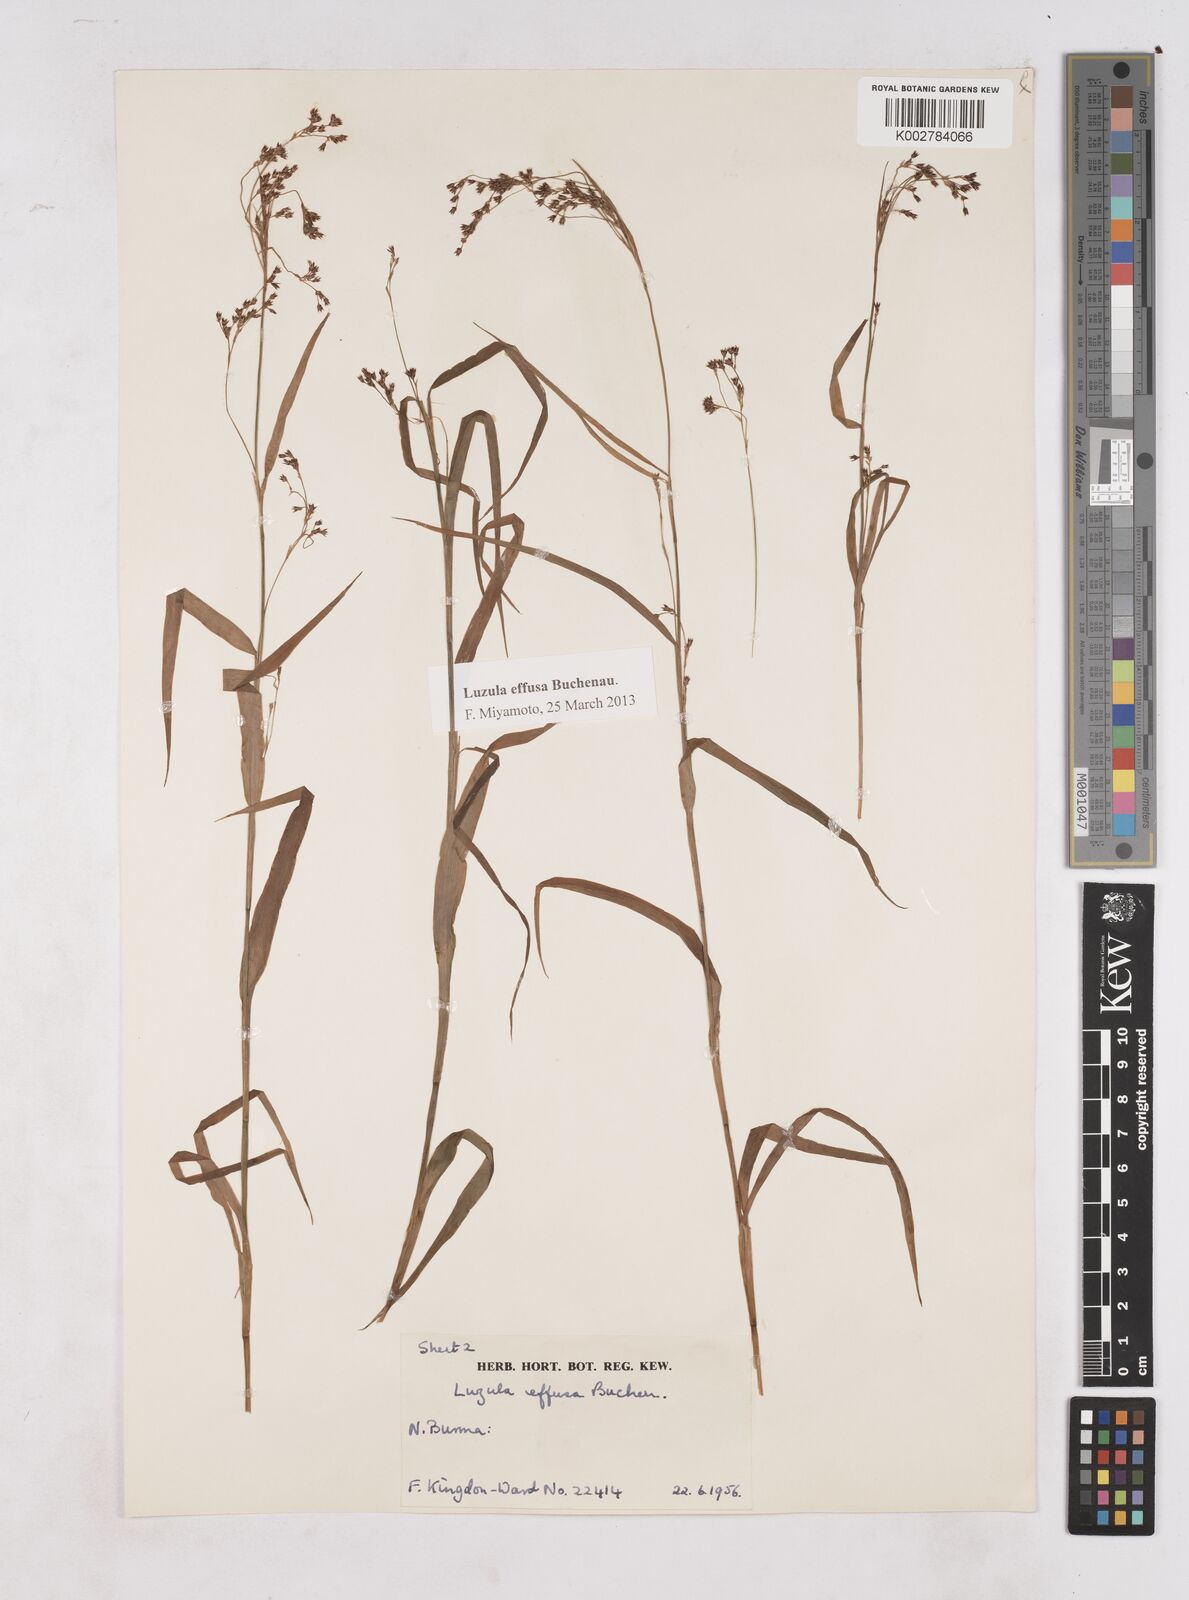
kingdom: Plantae
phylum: Tracheophyta
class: Liliopsida
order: Poales
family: Juncaceae
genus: Luzula
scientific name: Luzula effusa
